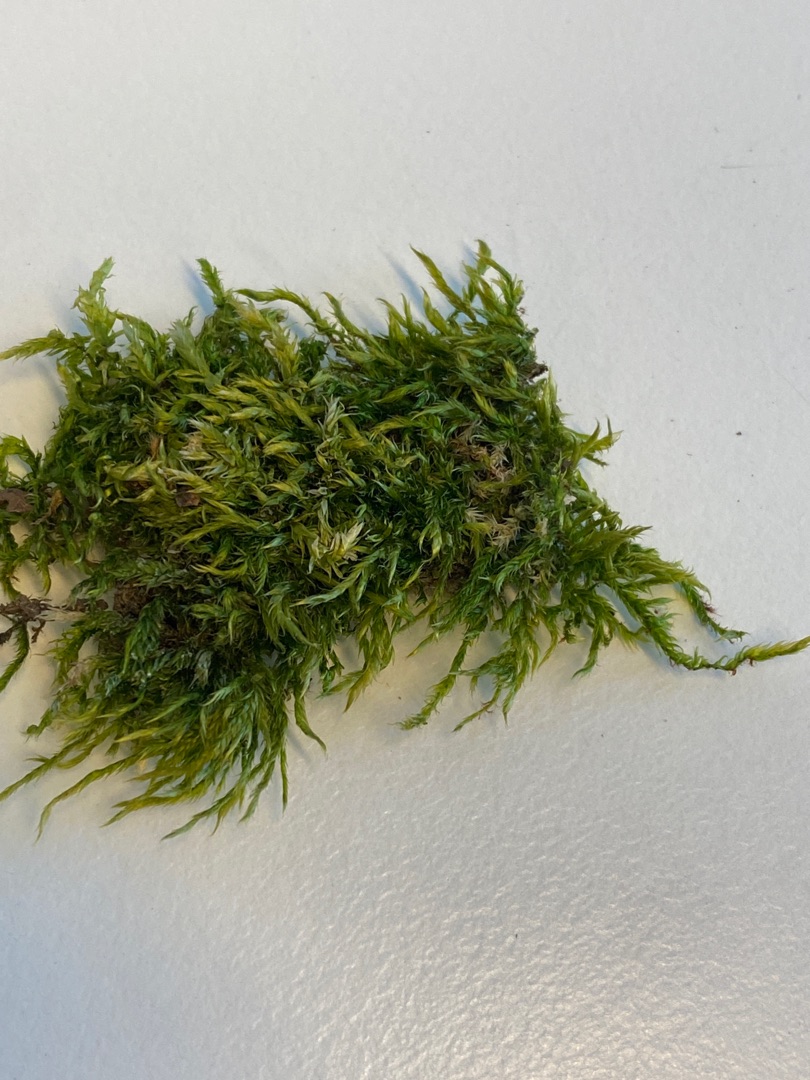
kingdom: Plantae
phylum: Bryophyta
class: Bryopsida
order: Hypnales
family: Hypnaceae
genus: Hypnum
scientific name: Hypnum
